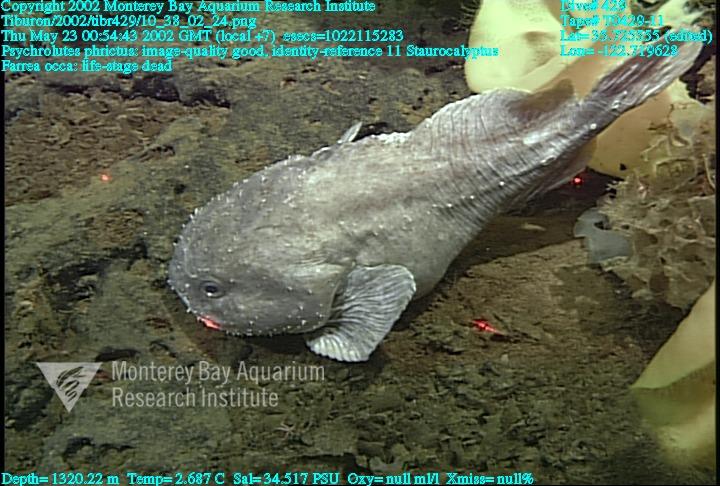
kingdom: Animalia
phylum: Porifera
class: Hexactinellida
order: Lyssacinosida
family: Rossellidae
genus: Staurocalyptus
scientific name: Staurocalyptus
